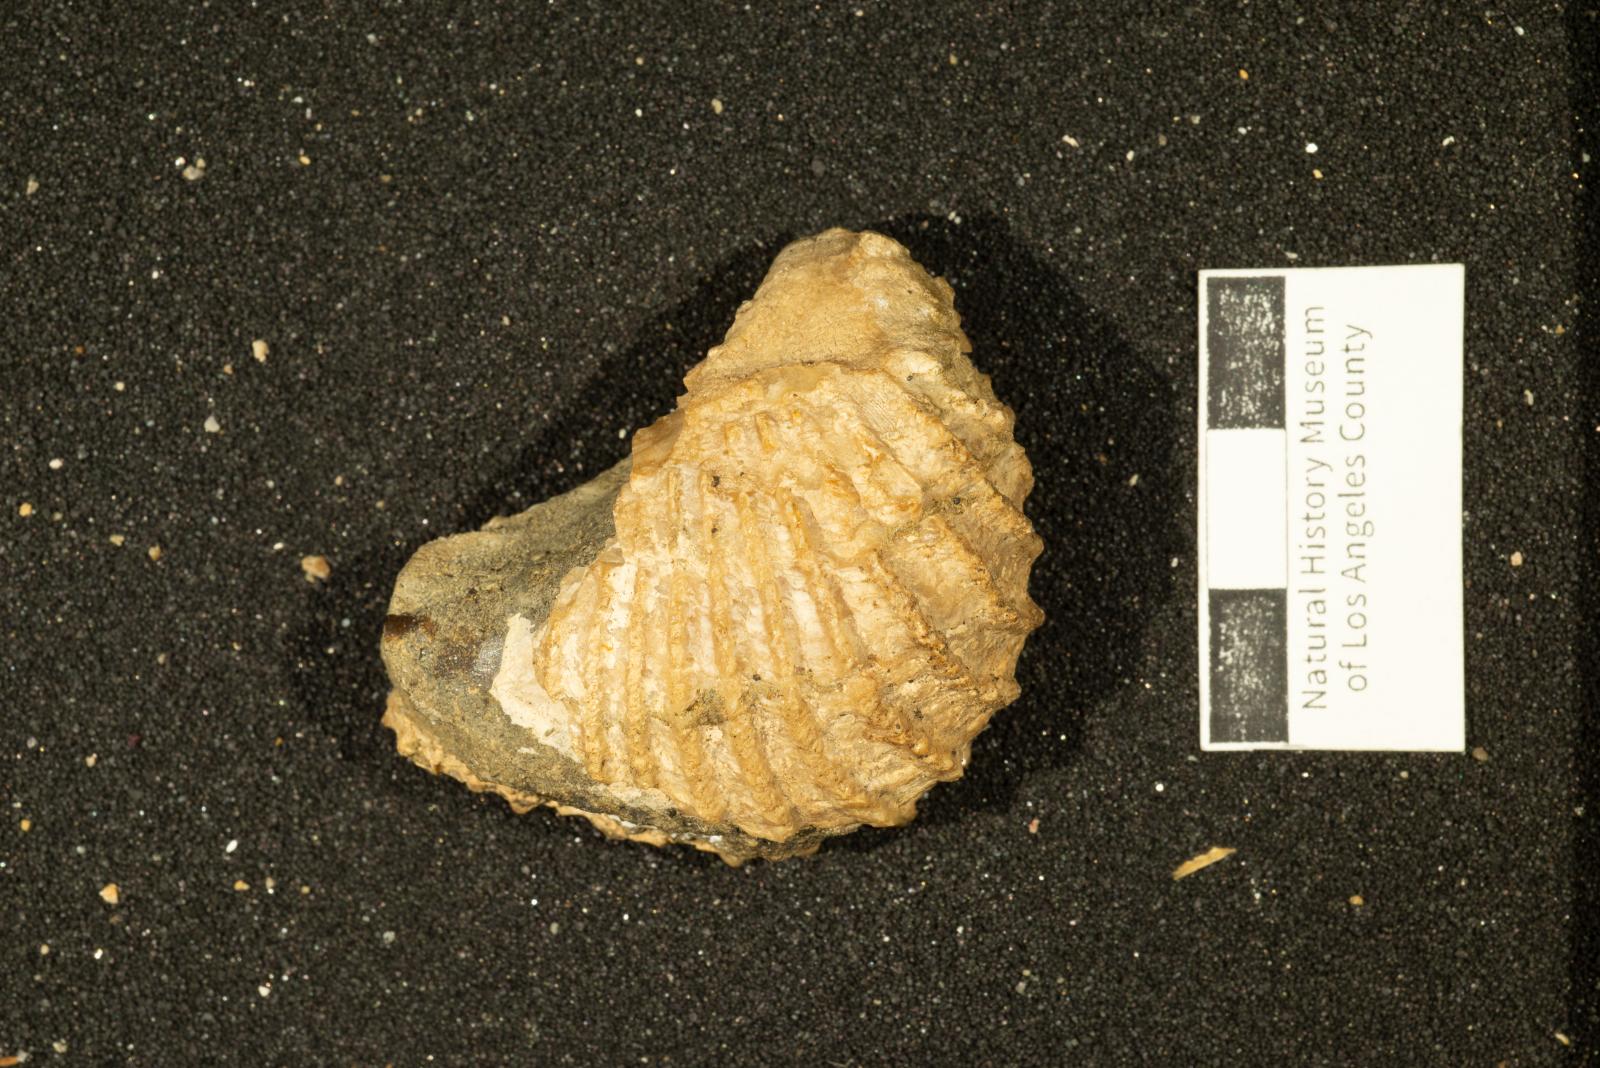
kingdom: Animalia
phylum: Mollusca
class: Bivalvia
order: Trigoniida
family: Pterotrigoniidae
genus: Pterotrigonia
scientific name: Pterotrigonia
